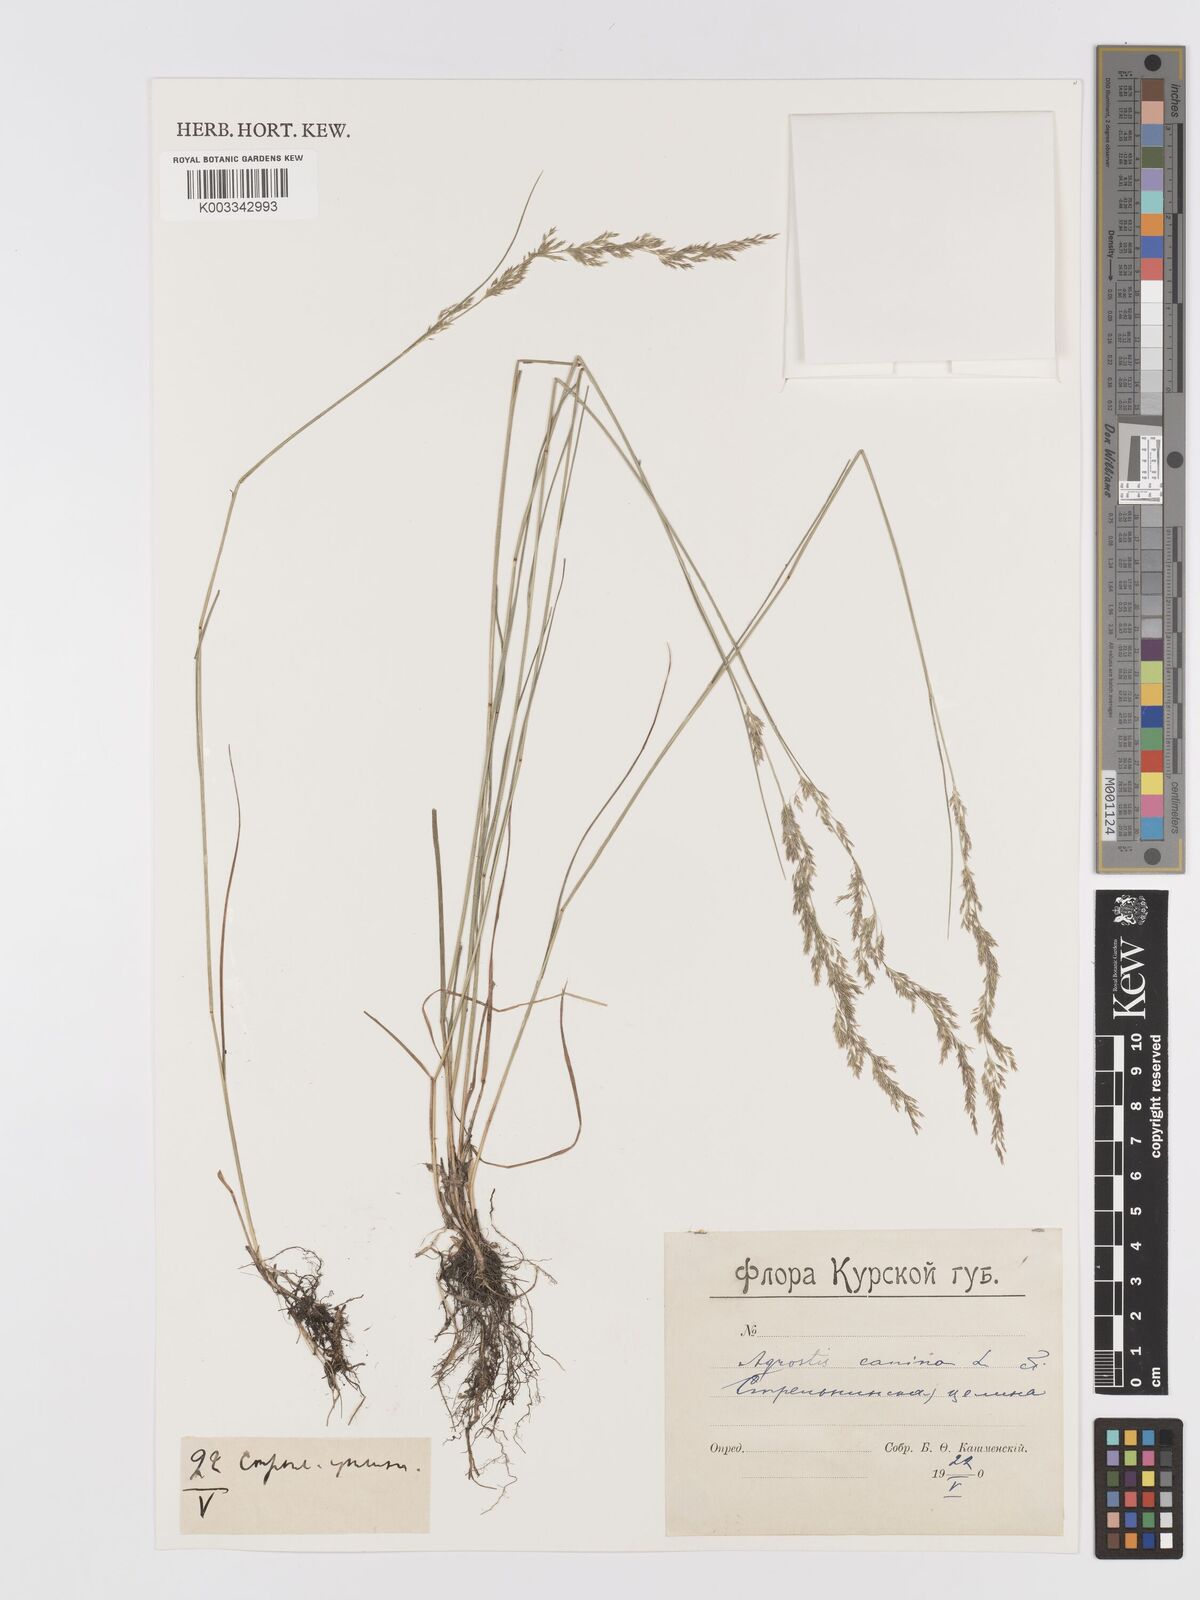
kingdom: Plantae
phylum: Tracheophyta
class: Liliopsida
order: Poales
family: Poaceae
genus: Agrostis
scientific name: Agrostis canina
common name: Velvet bent
